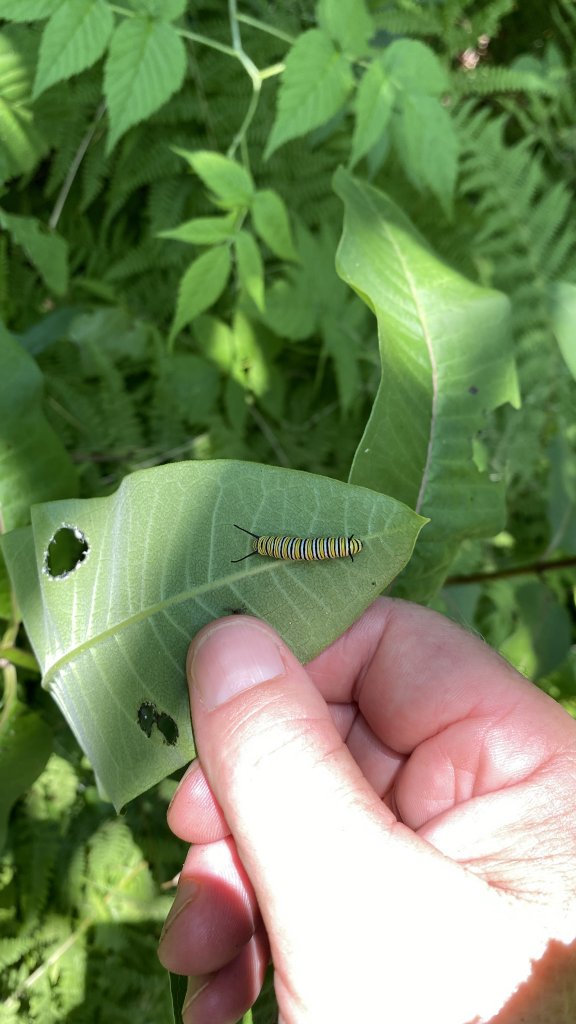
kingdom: Animalia
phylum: Arthropoda
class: Insecta
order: Lepidoptera
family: Nymphalidae
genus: Danaus
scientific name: Danaus plexippus
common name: Monarch
